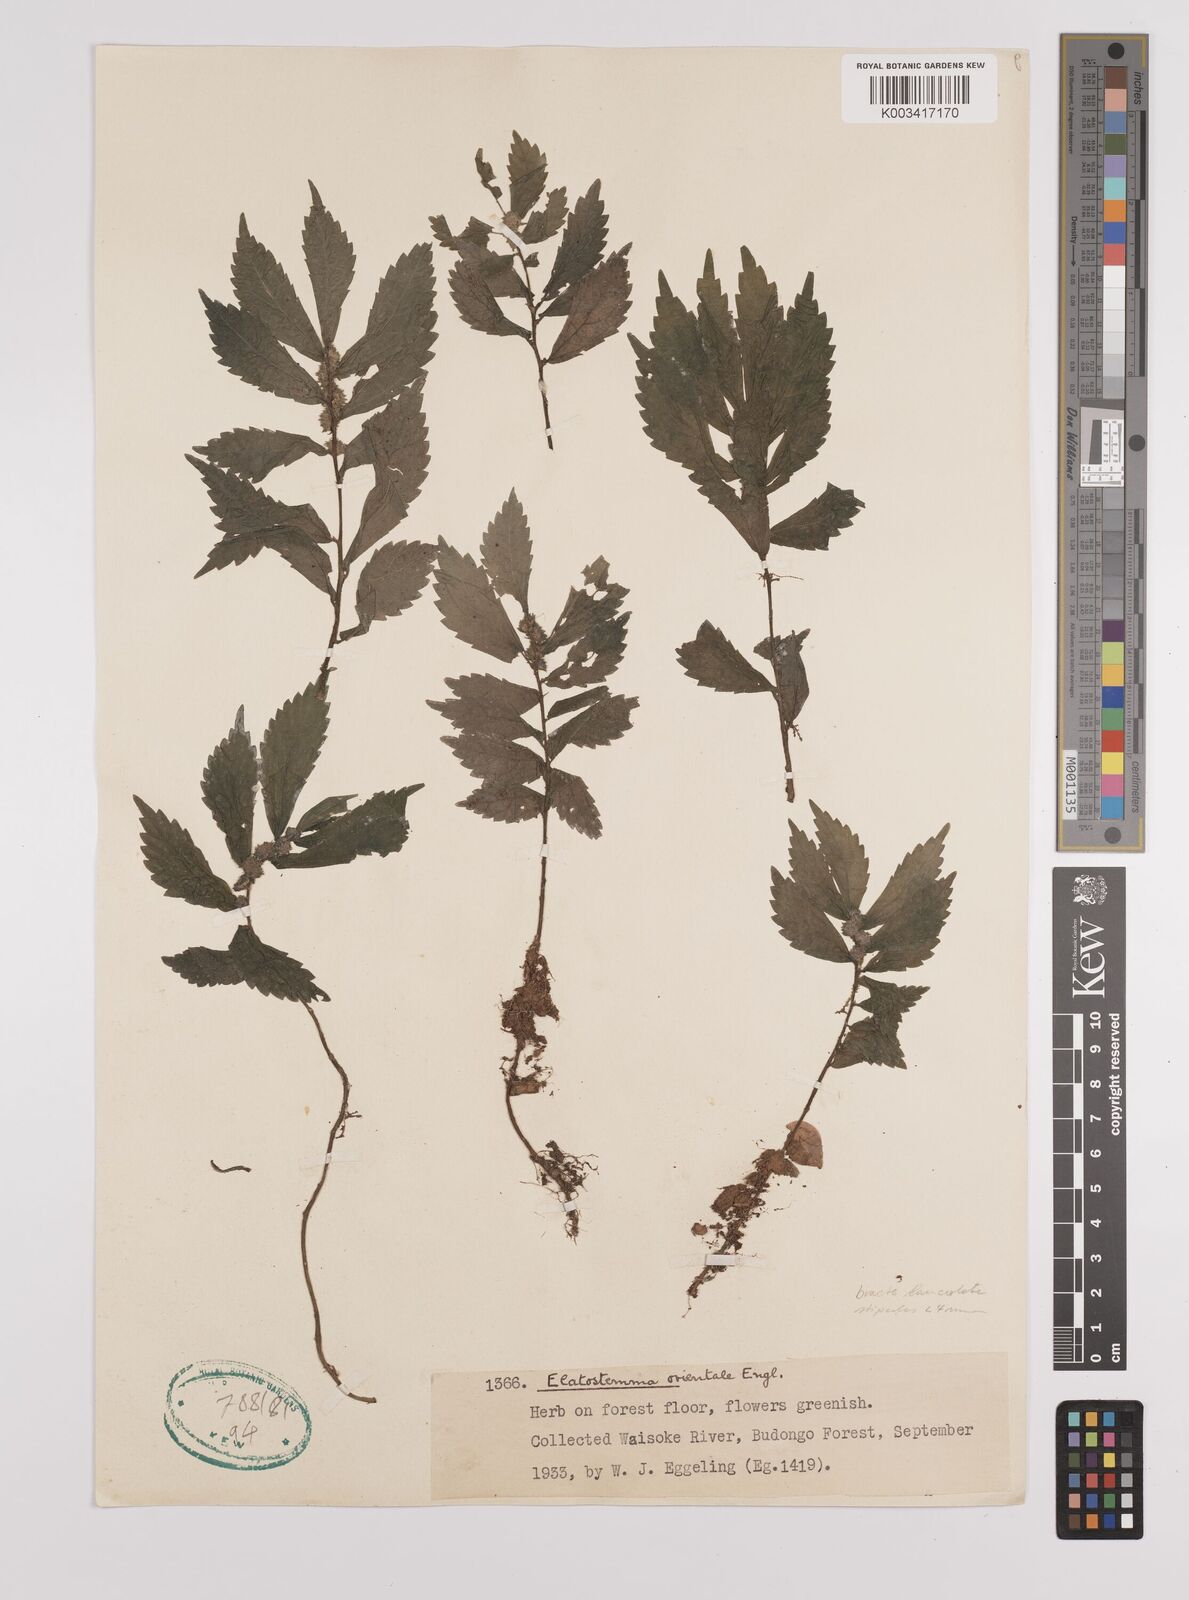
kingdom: Plantae
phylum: Tracheophyta
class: Magnoliopsida
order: Rosales
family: Urticaceae
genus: Elatostema
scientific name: Elatostema monticola
